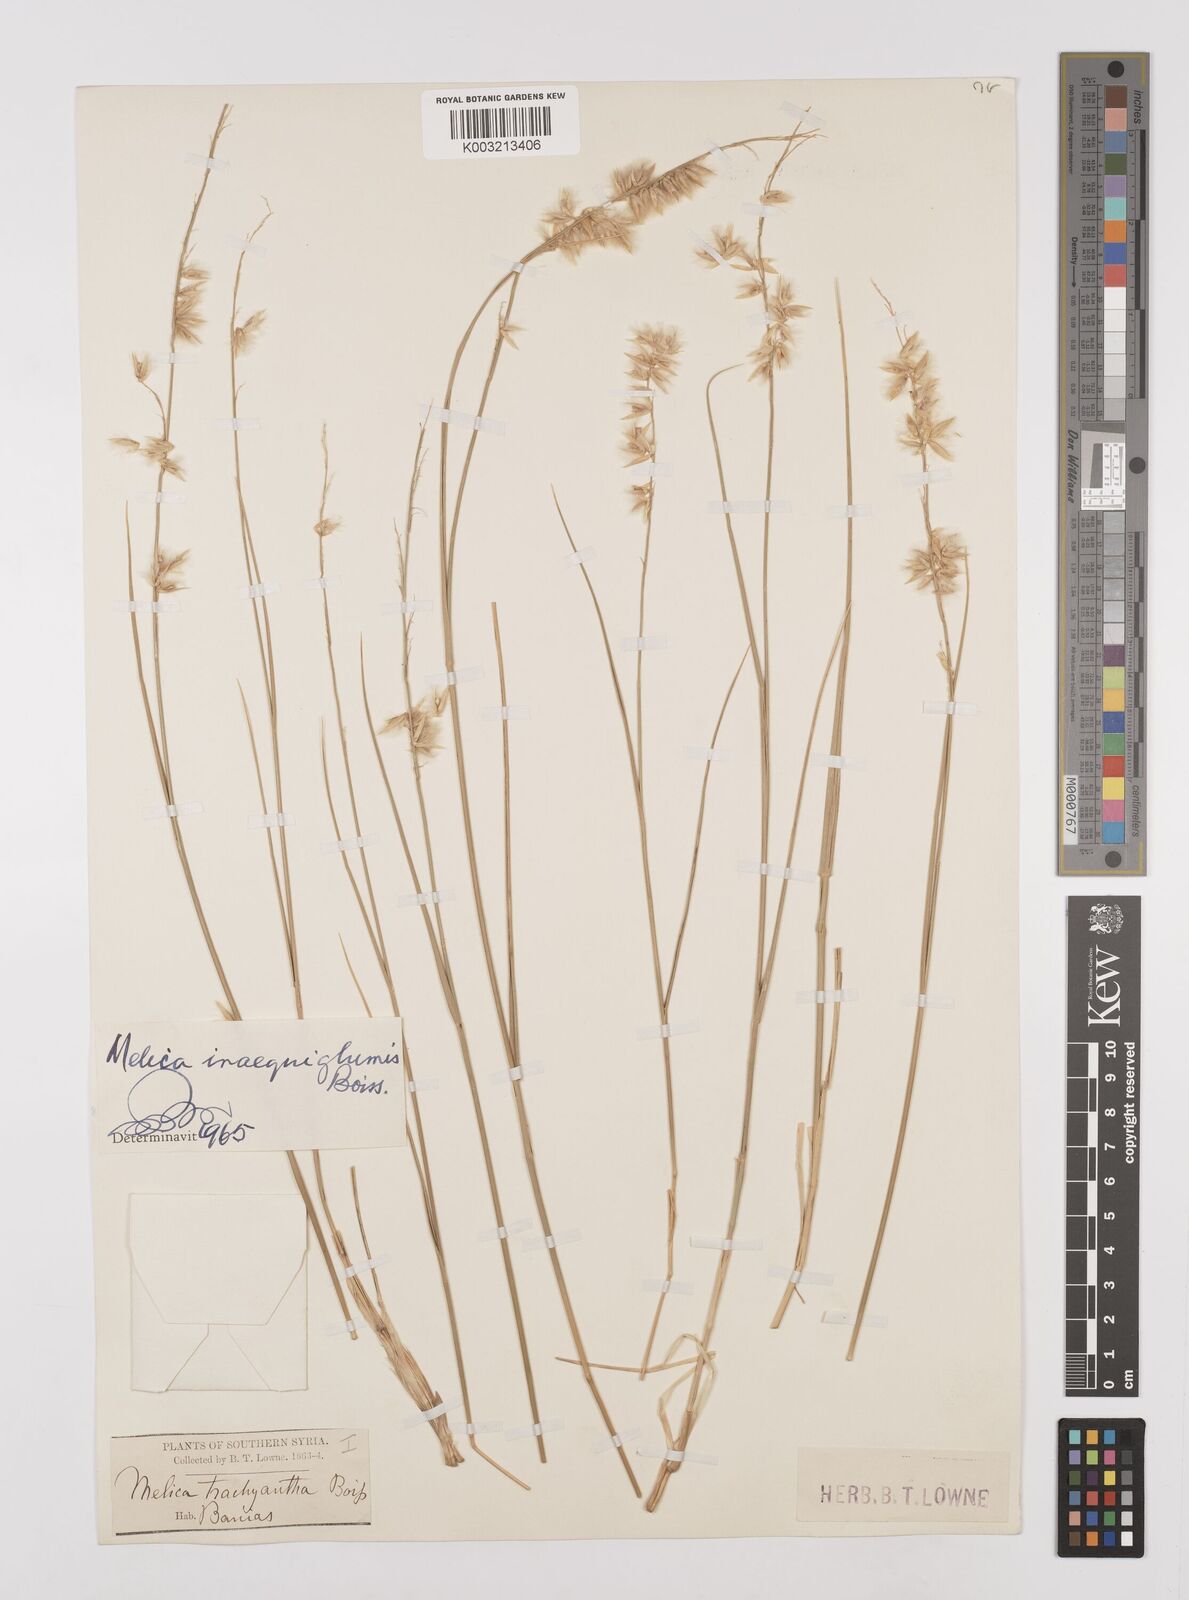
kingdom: Plantae
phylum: Tracheophyta
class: Liliopsida
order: Poales
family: Poaceae
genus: Melica
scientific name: Melica persica
